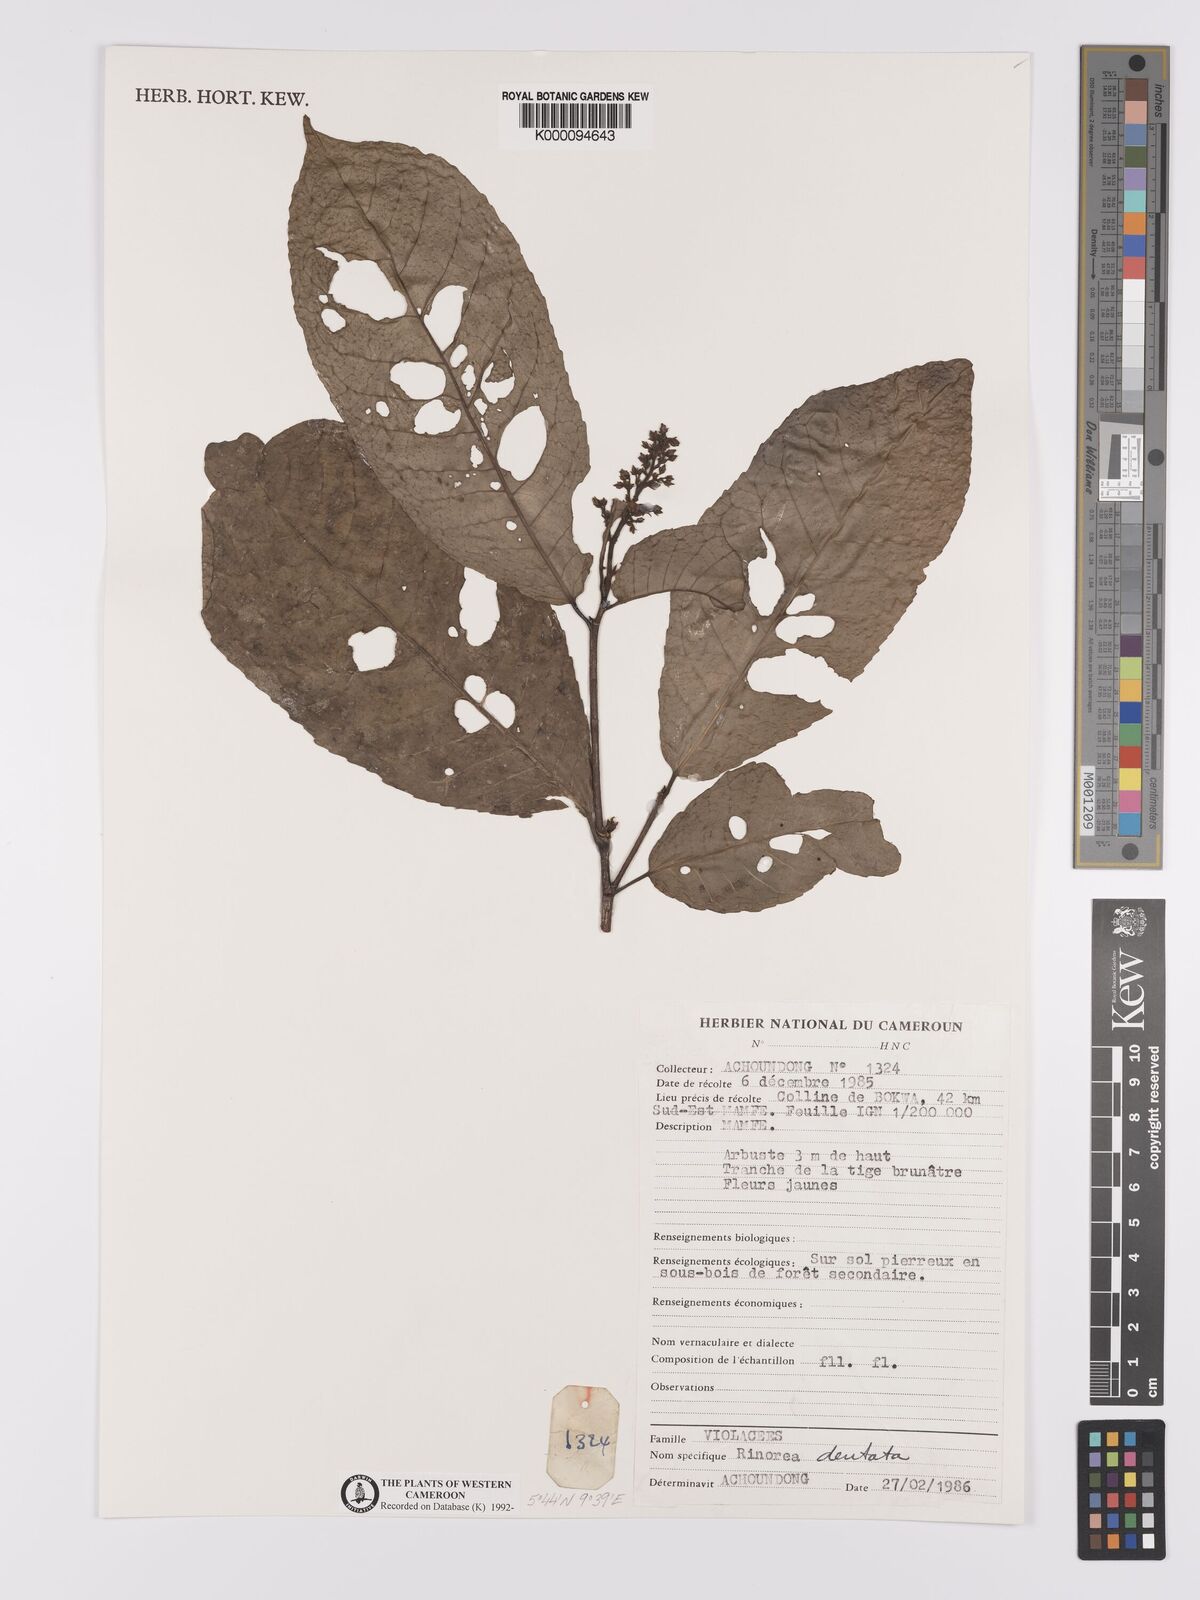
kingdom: Plantae
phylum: Tracheophyta
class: Magnoliopsida
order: Malpighiales
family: Violaceae
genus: Rinorea
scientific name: Rinorea dentata
